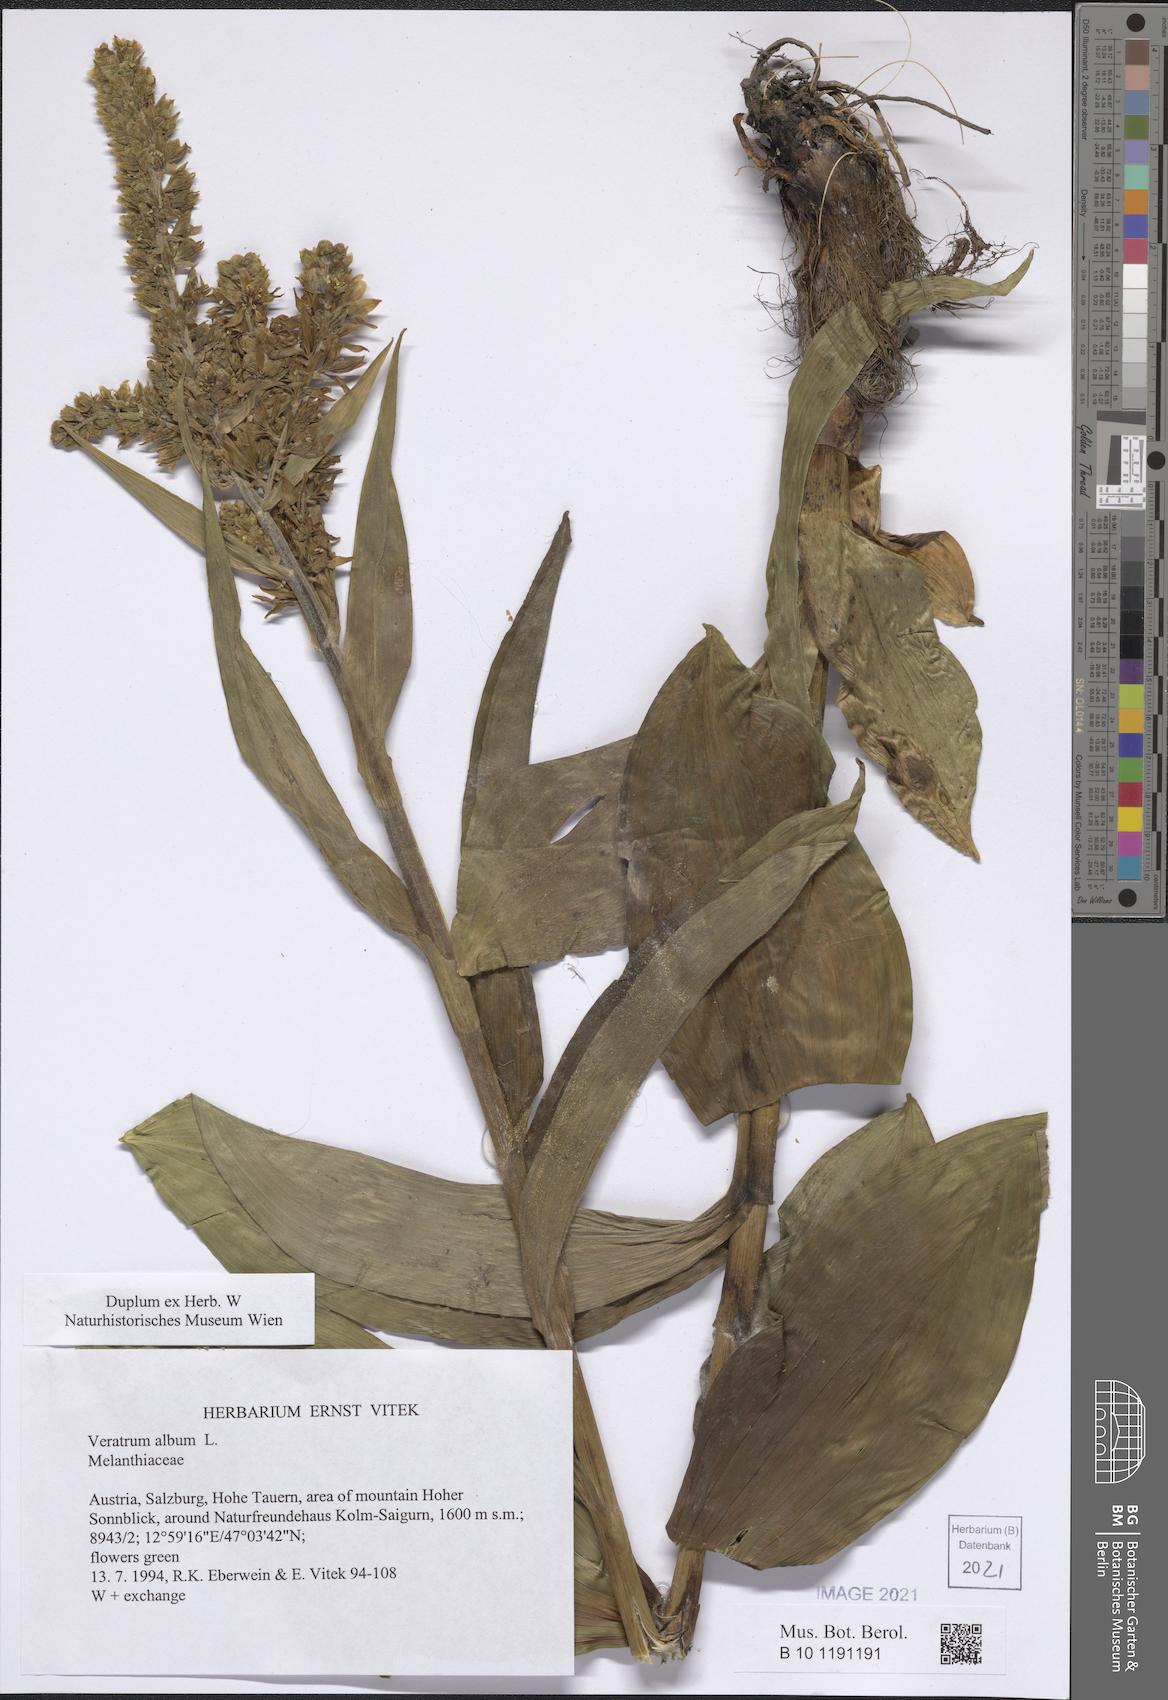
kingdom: Plantae
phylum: Tracheophyta
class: Liliopsida
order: Liliales
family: Melanthiaceae
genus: Veratrum
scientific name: Veratrum album
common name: White veratrum
